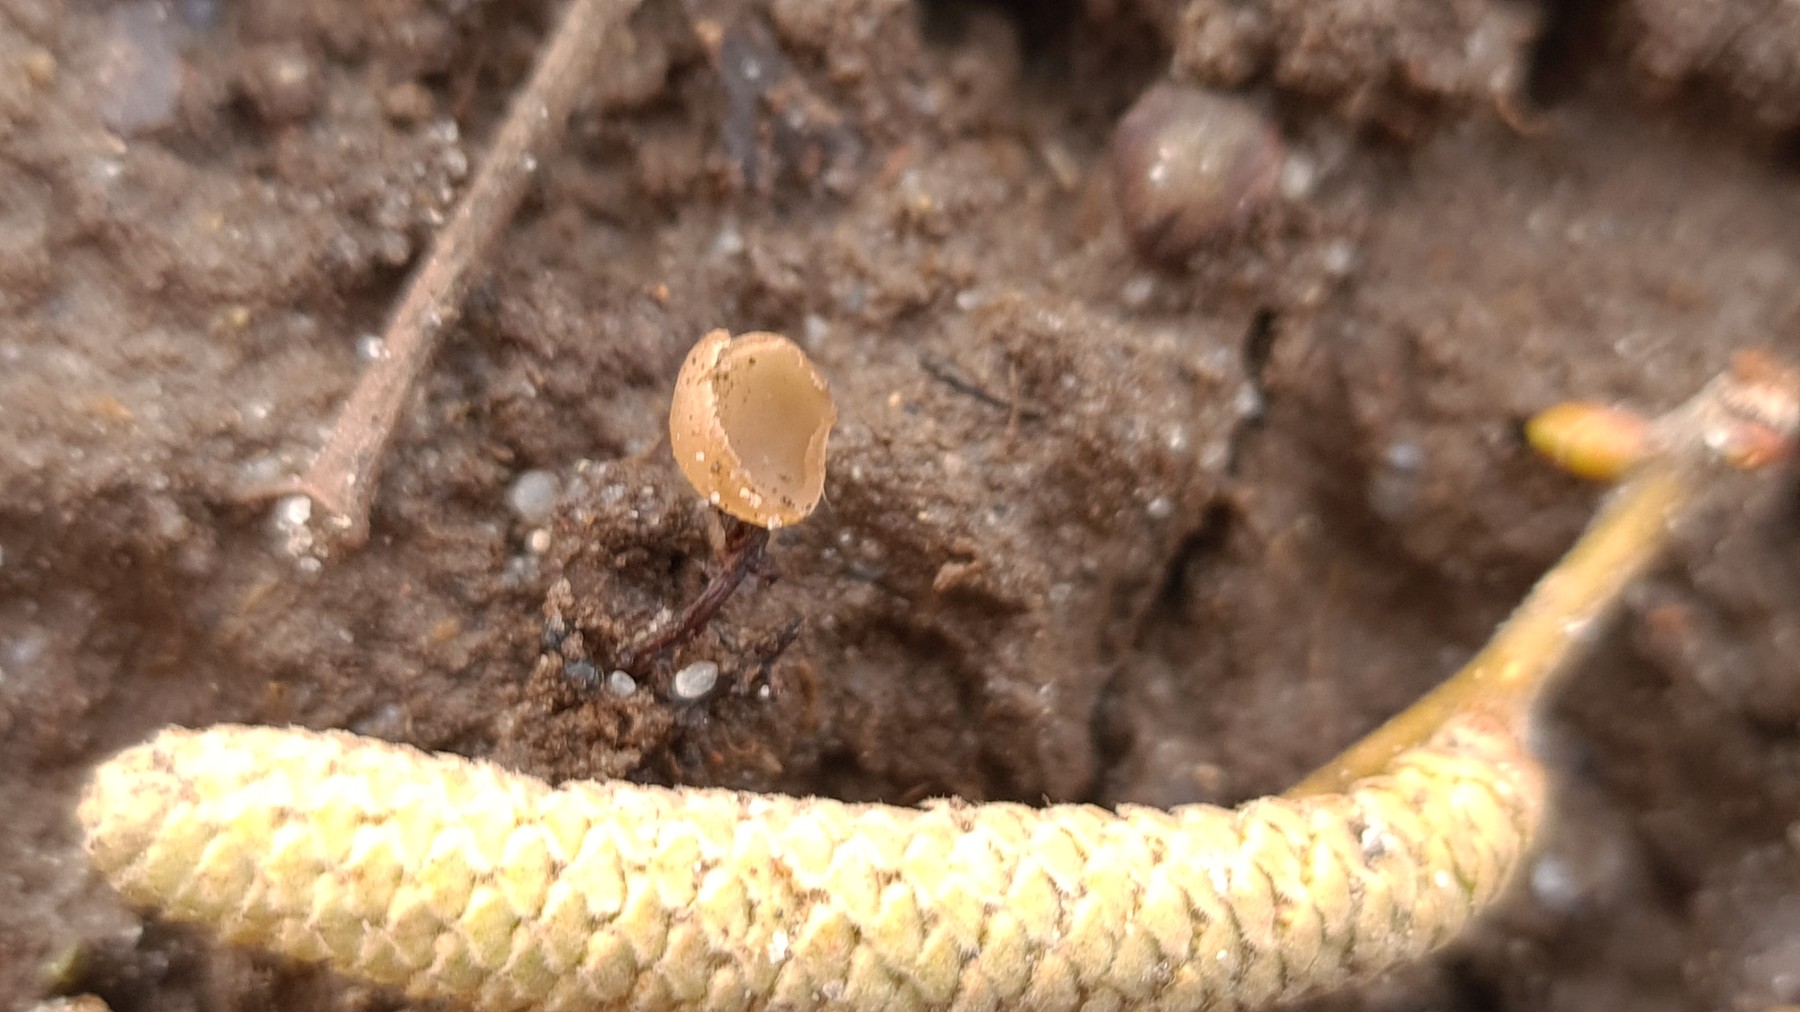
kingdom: Fungi
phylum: Ascomycota
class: Leotiomycetes
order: Helotiales
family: Sclerotiniaceae
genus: Ciboria
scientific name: Ciboria
